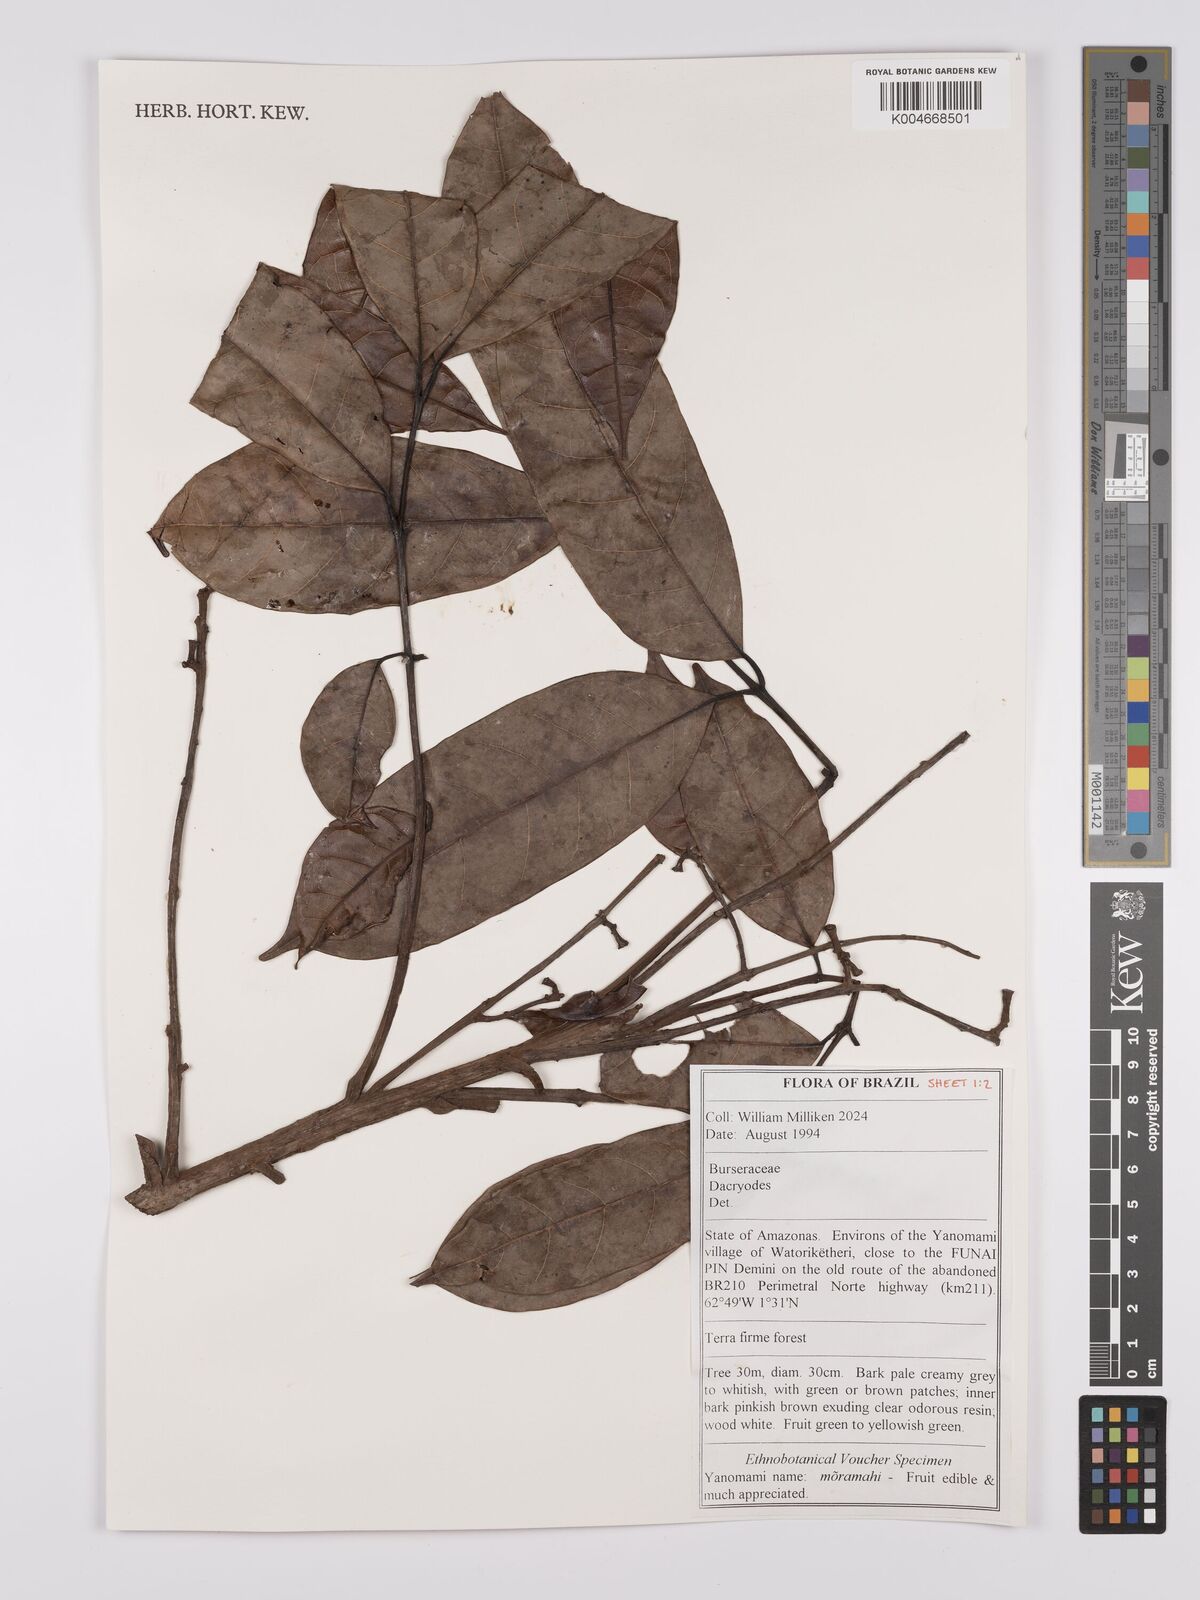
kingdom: Plantae
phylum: Tracheophyta
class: Magnoliopsida
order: Sapindales
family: Burseraceae
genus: Dacryodes
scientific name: Dacryodes
